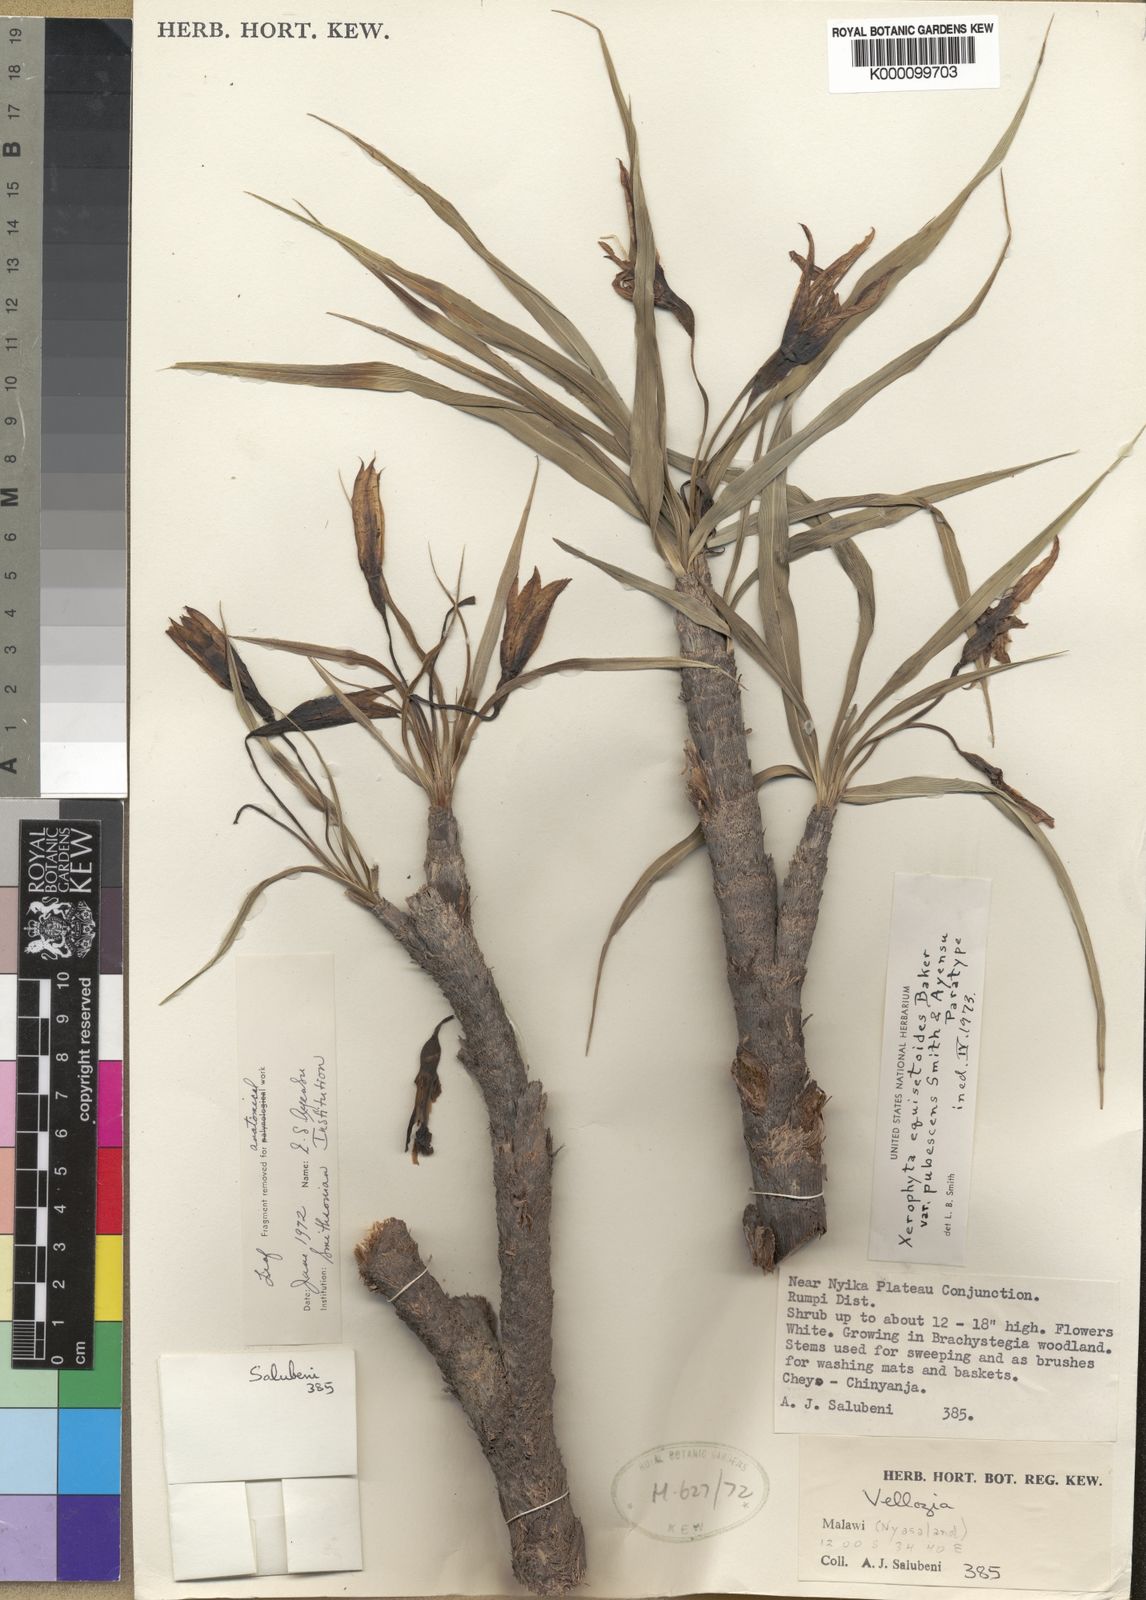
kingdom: Plantae
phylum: Tracheophyta
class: Liliopsida
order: Pandanales
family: Velloziaceae
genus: Xerophyta
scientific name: Xerophyta wentzeliana
